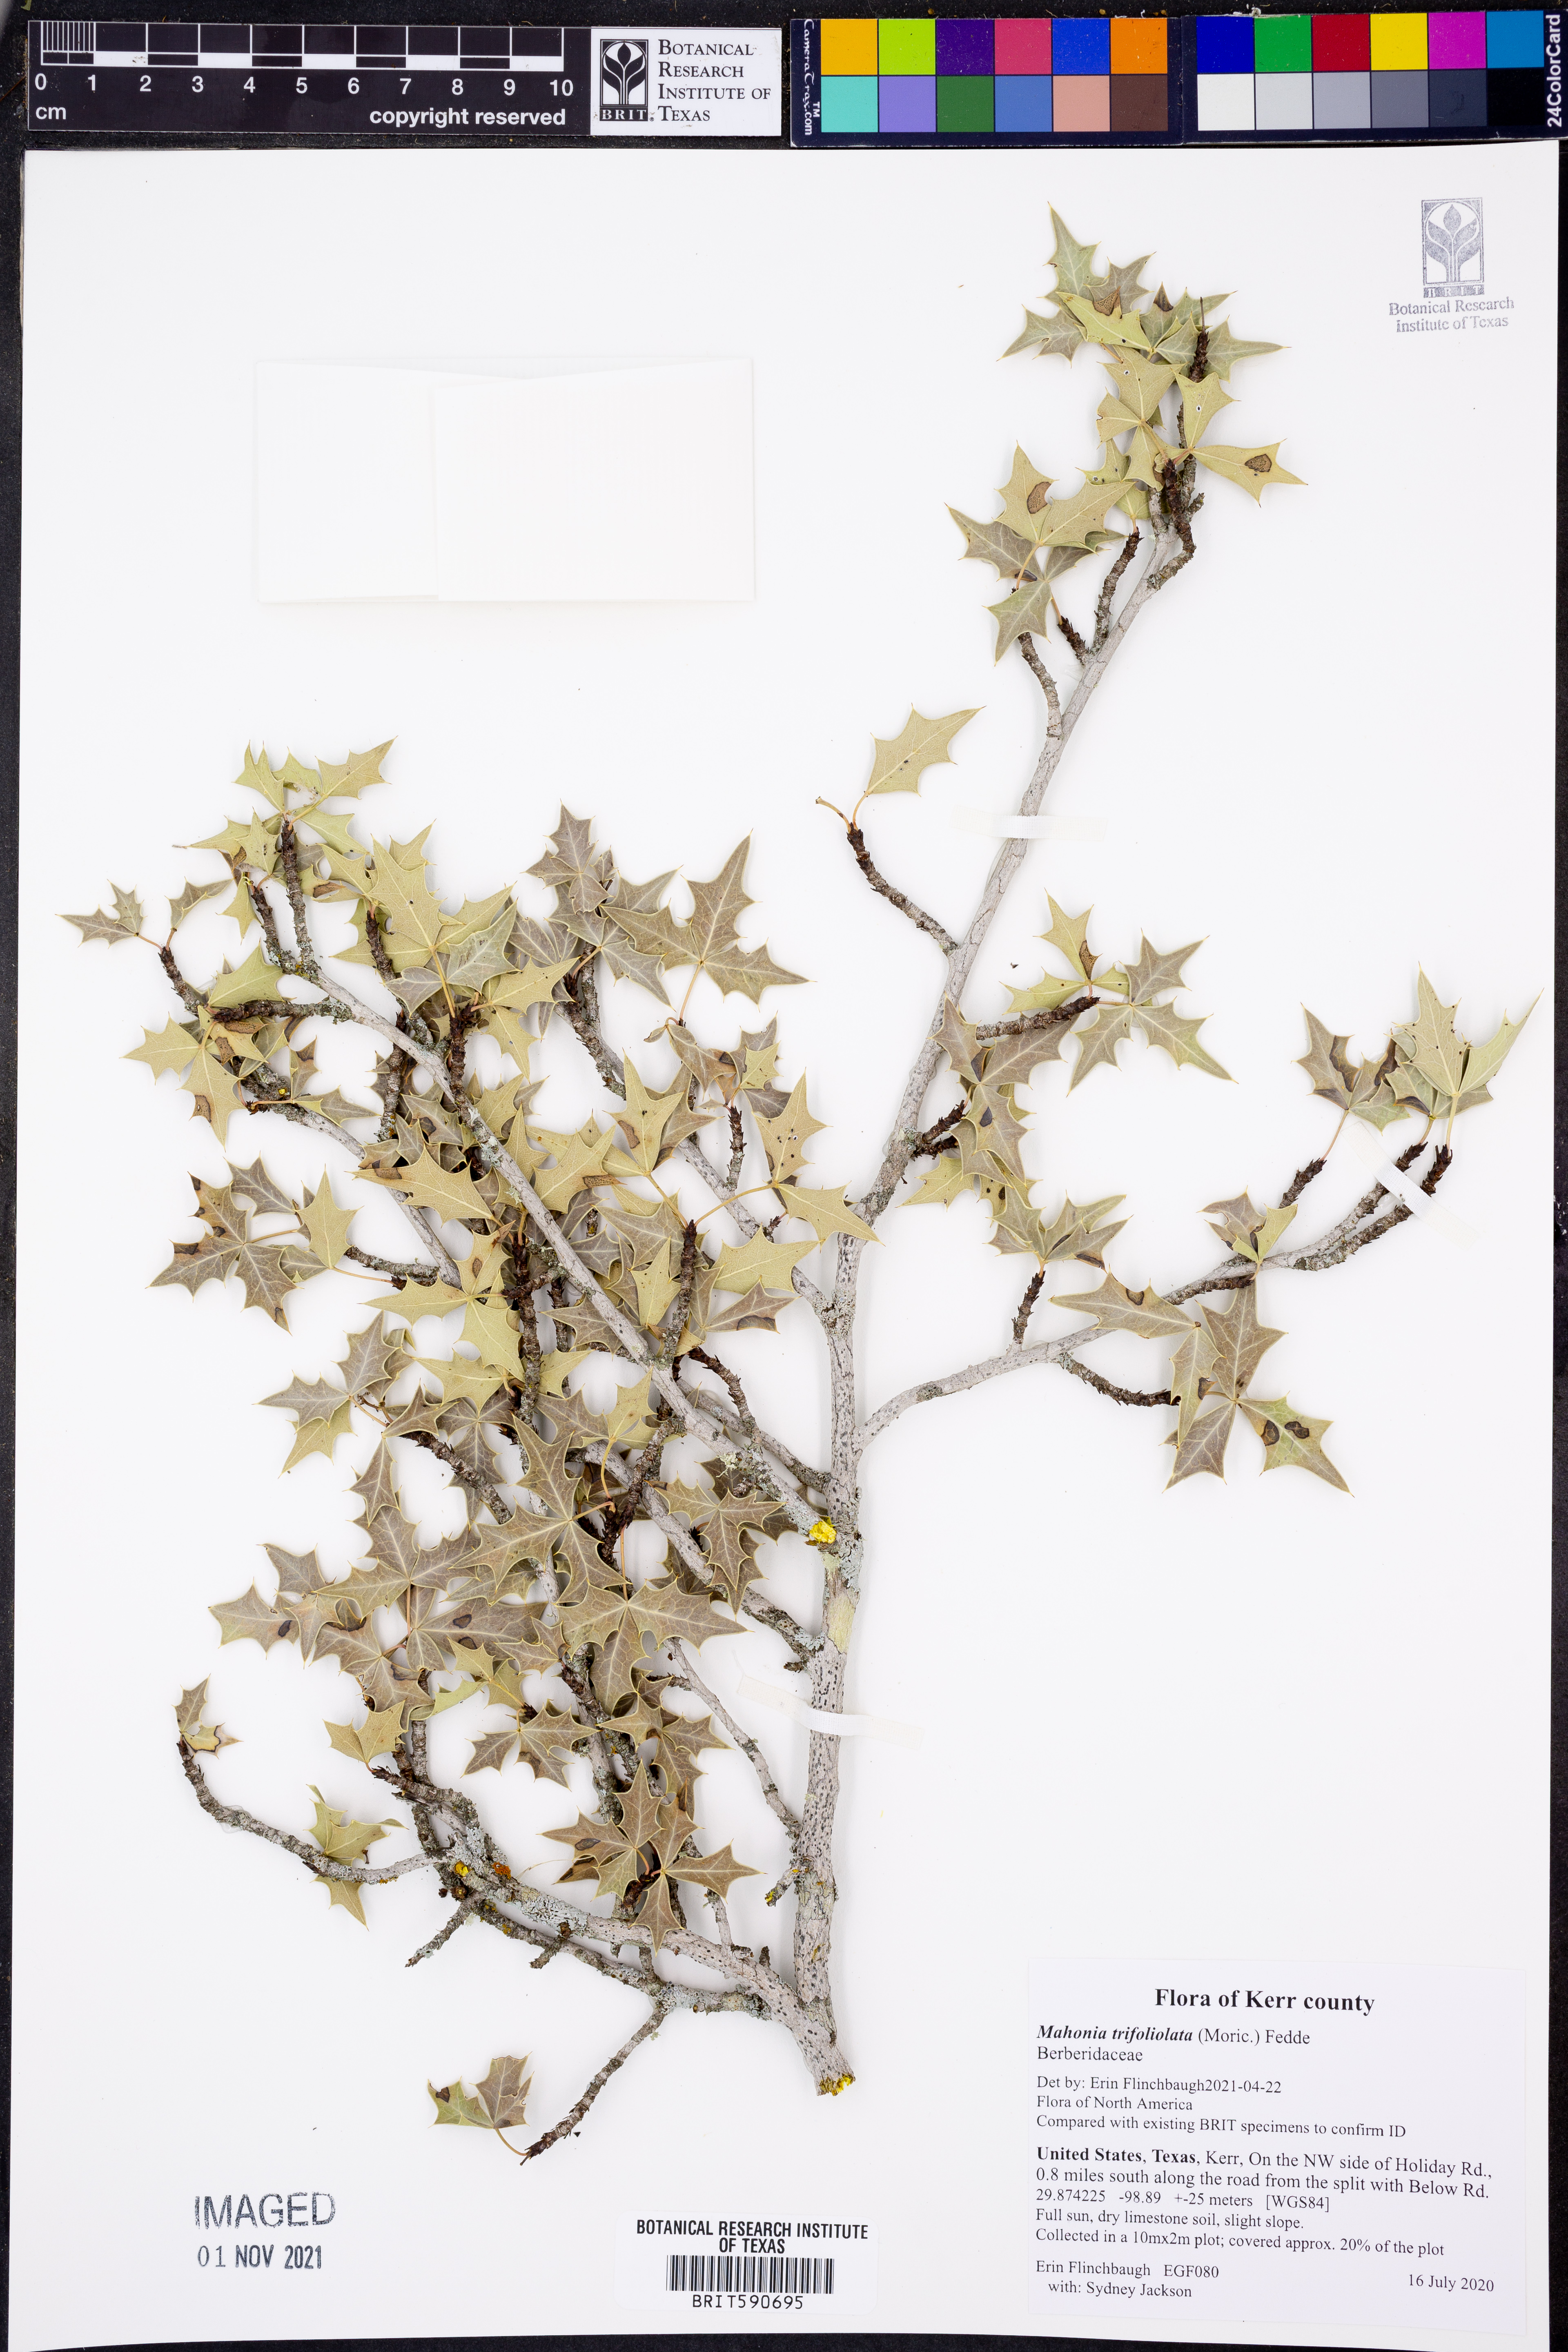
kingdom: Plantae
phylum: Tracheophyta
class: Magnoliopsida
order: Ranunculales
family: Berberidaceae
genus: Alloberberis
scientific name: Alloberberis trifoliolata
